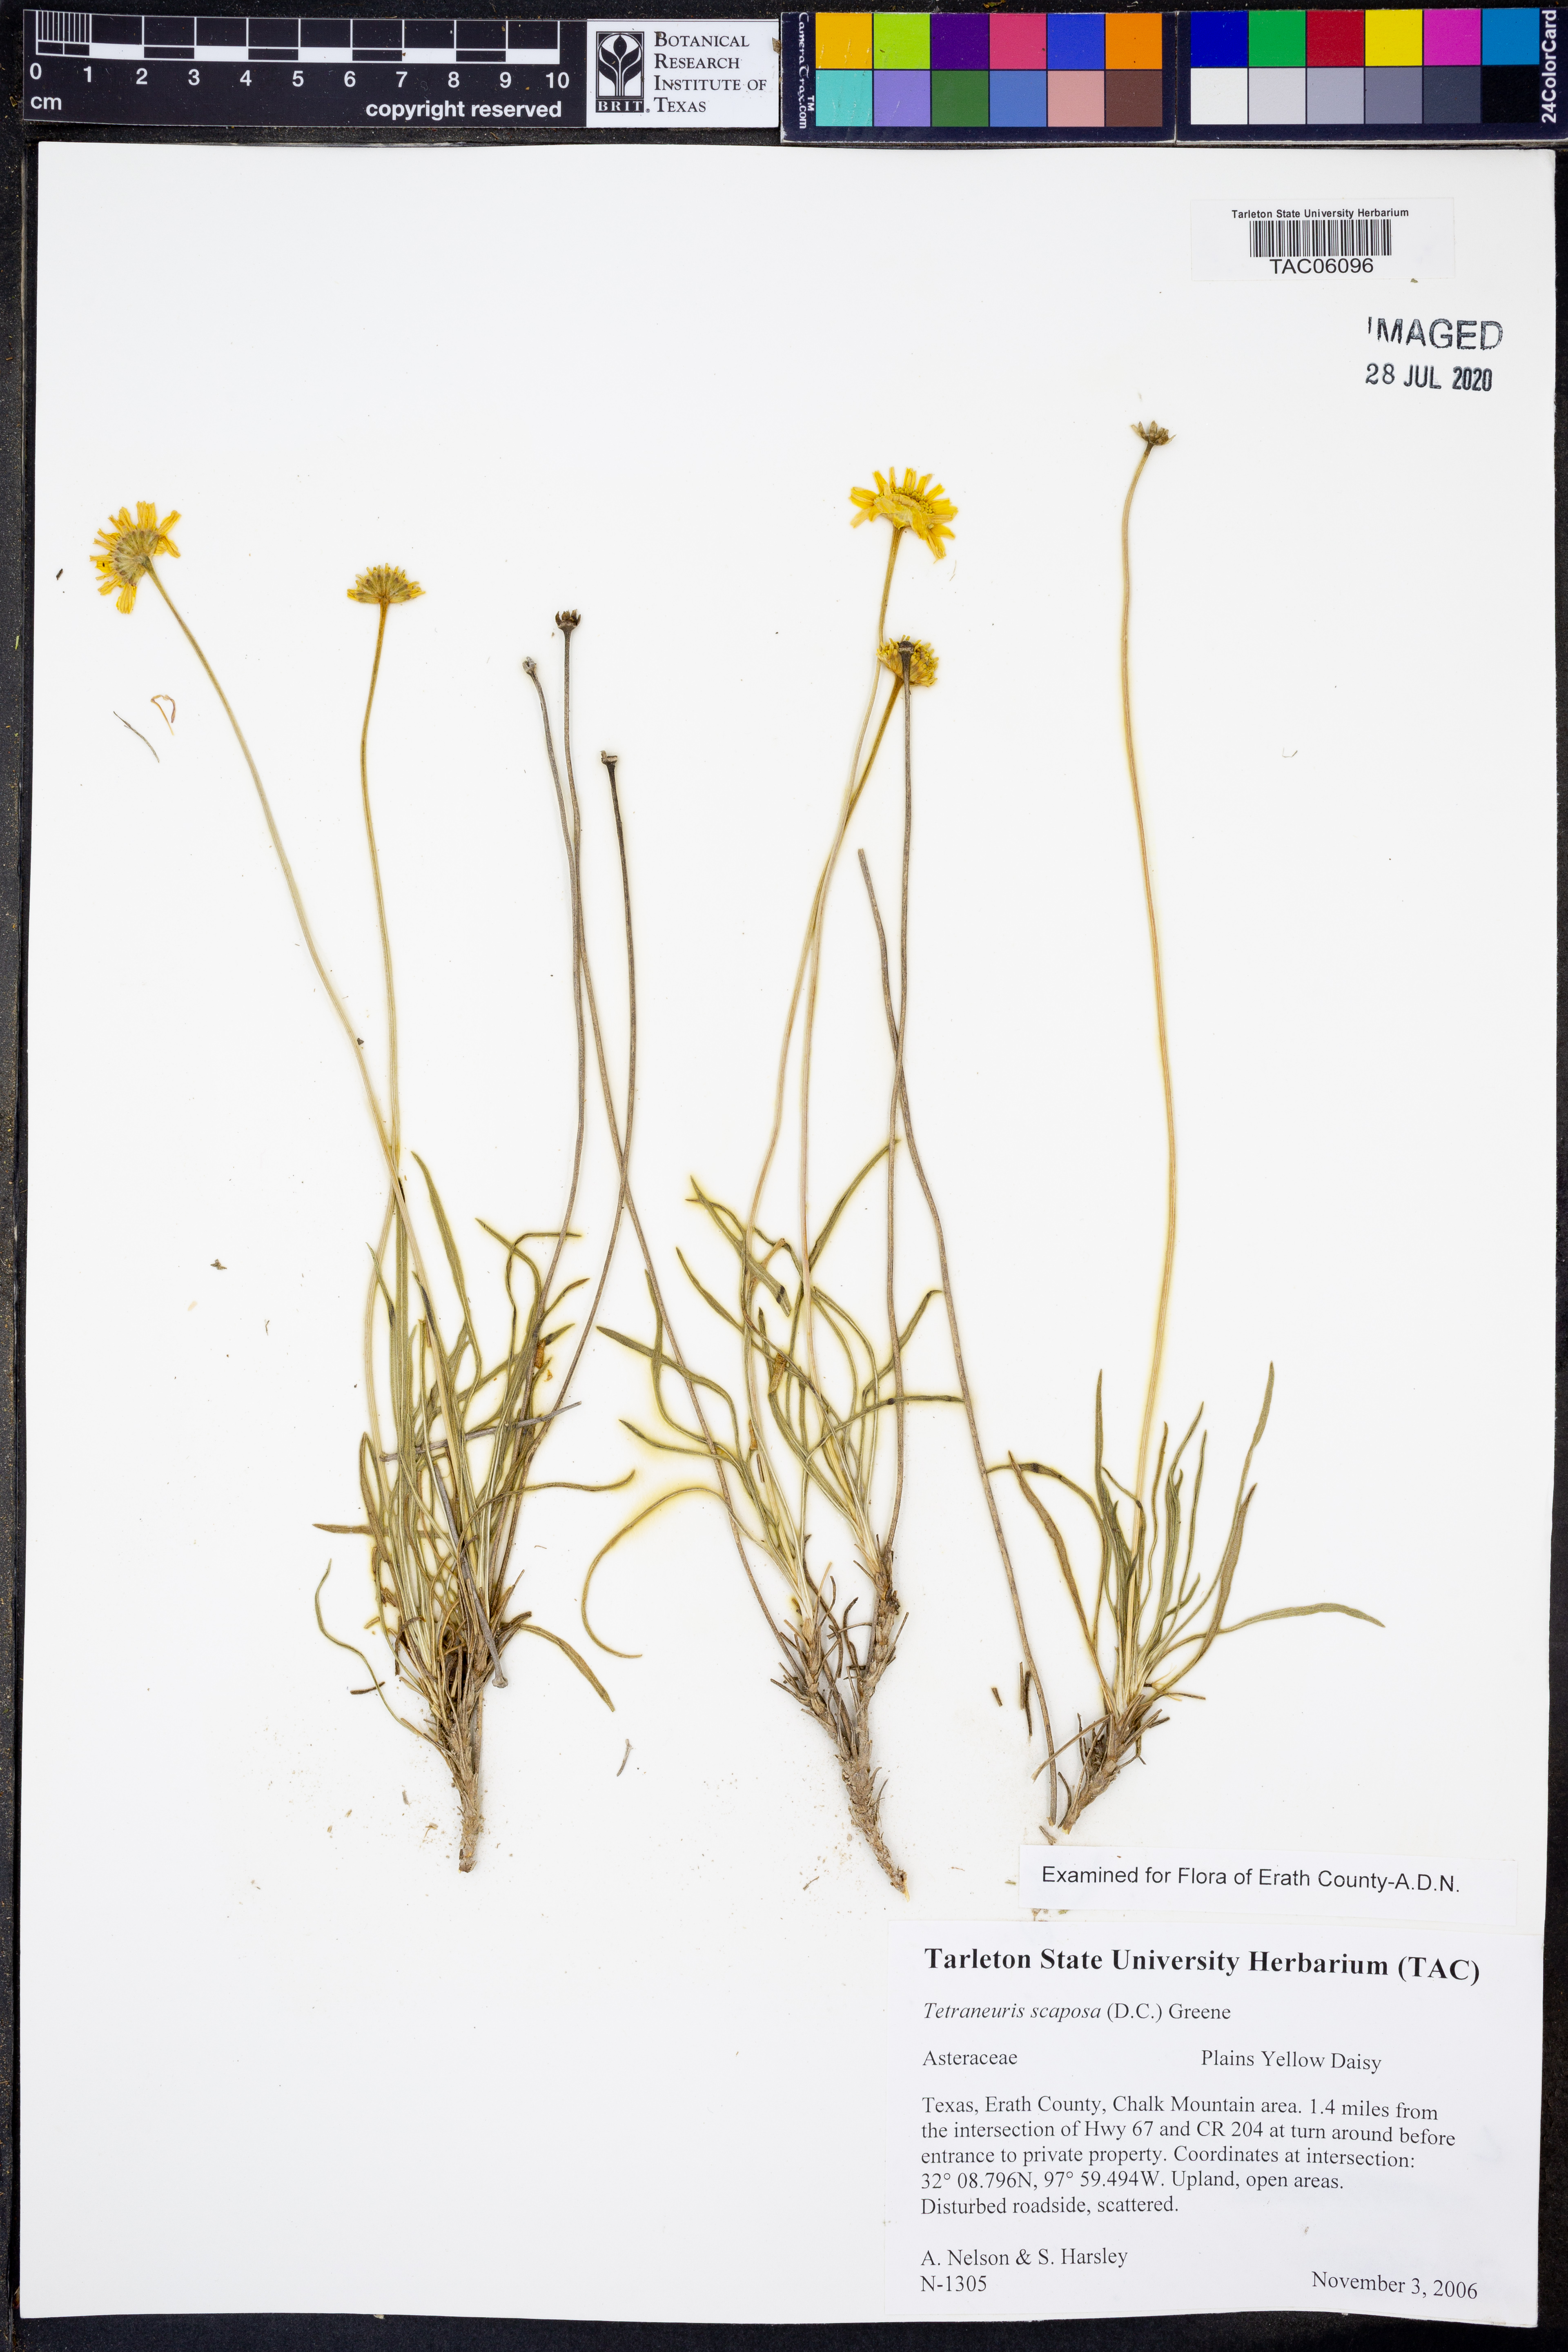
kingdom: Plantae
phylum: Tracheophyta
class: Magnoliopsida
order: Asterales
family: Asteraceae
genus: Tetraneuris
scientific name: Tetraneuris scaposa
